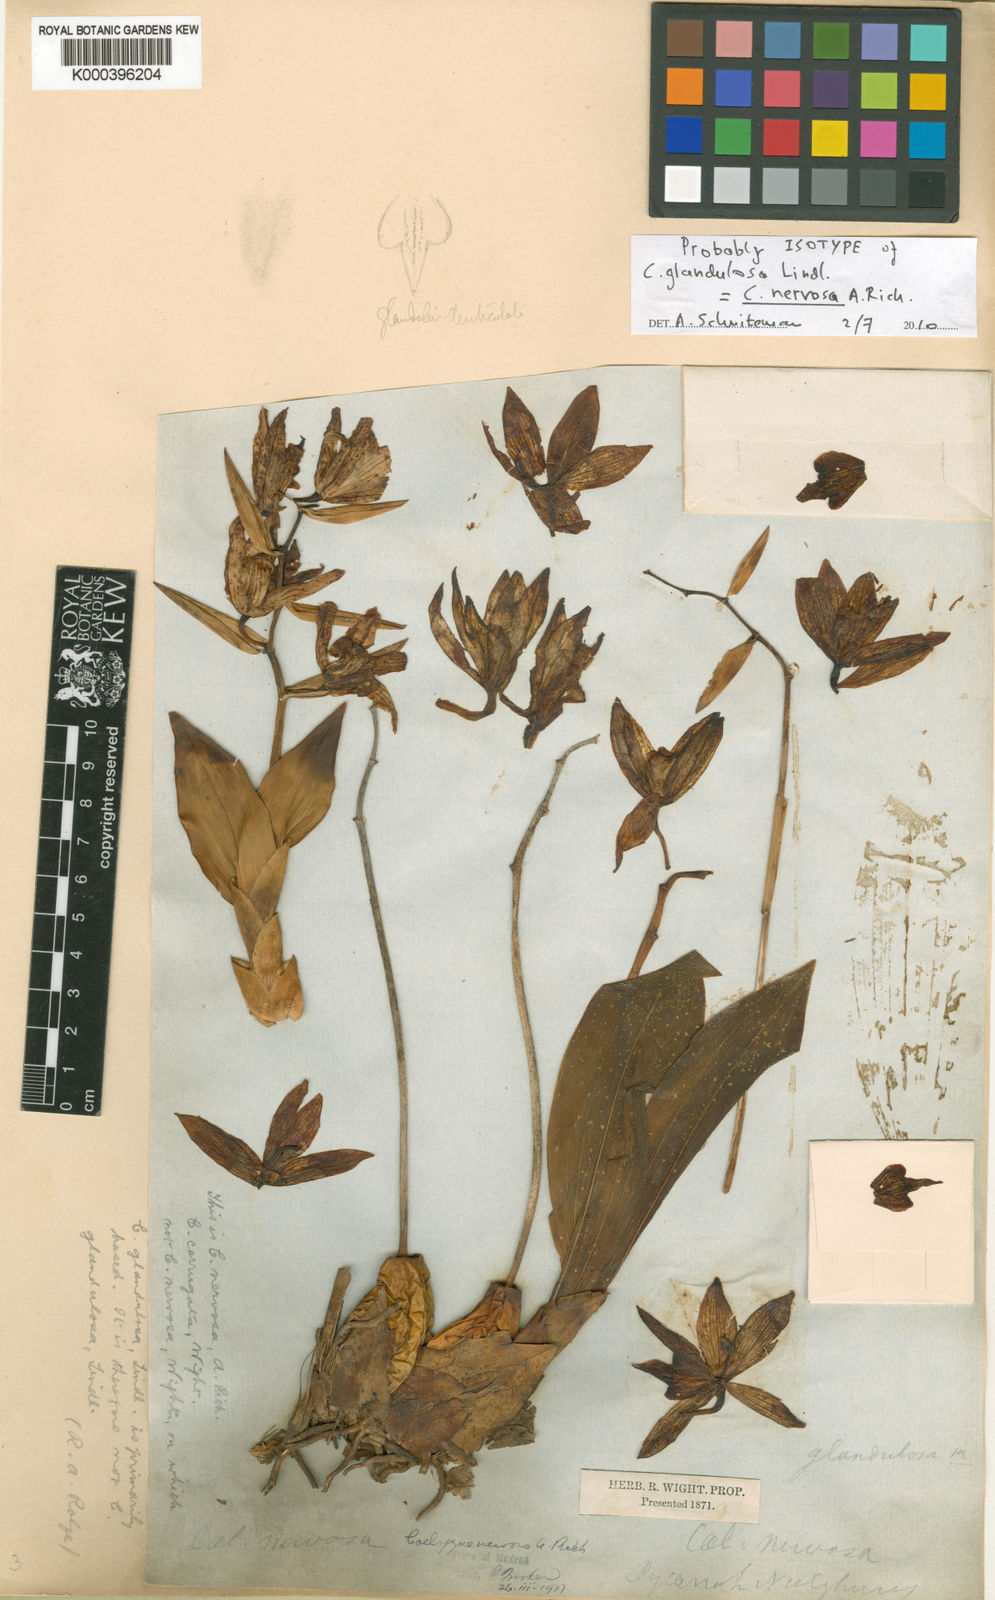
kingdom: Plantae
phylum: Tracheophyta
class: Liliopsida
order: Asparagales
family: Orchidaceae
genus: Coelogyne
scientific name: Coelogyne nervosa
